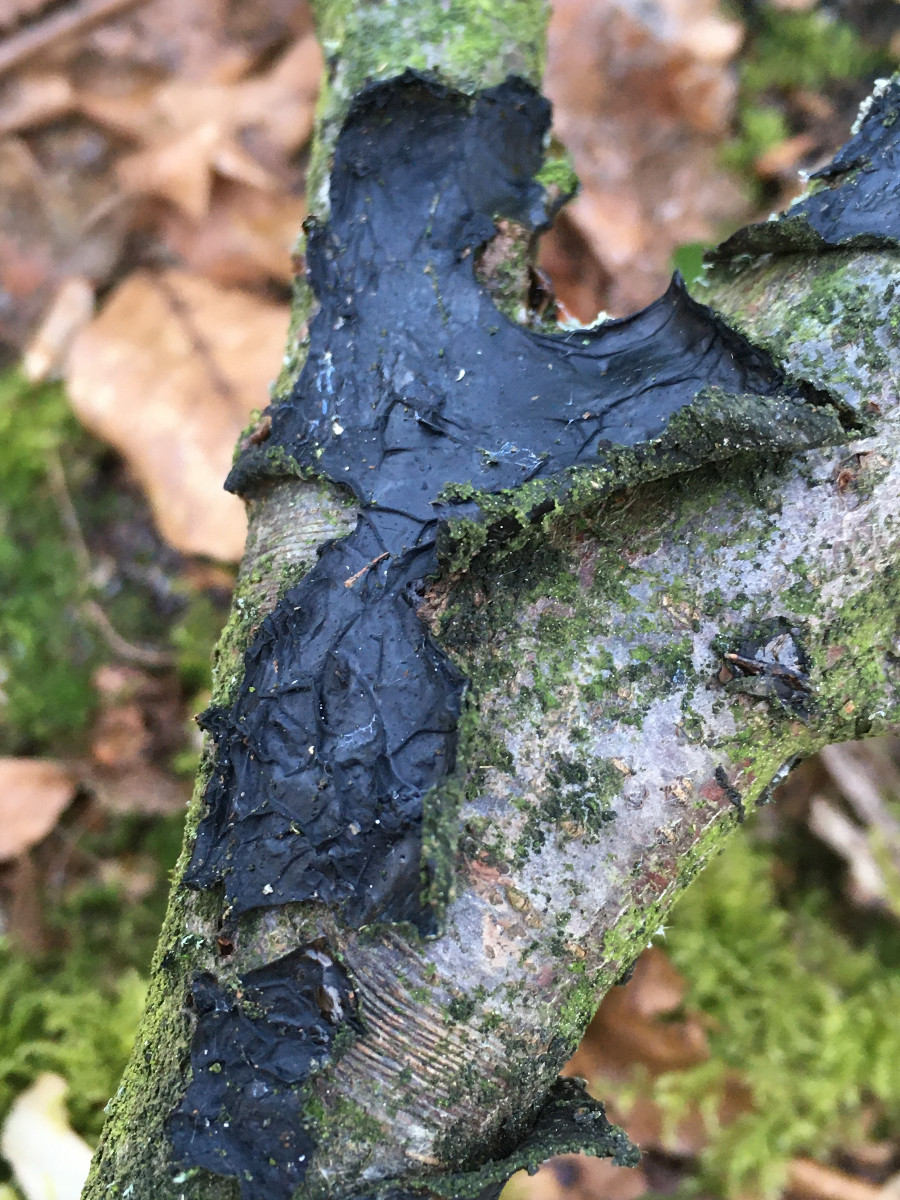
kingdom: Fungi
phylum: Basidiomycota
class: Agaricomycetes
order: Auriculariales
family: Auriculariaceae
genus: Exidia
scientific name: Exidia nigricans
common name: almindelig bævretop
